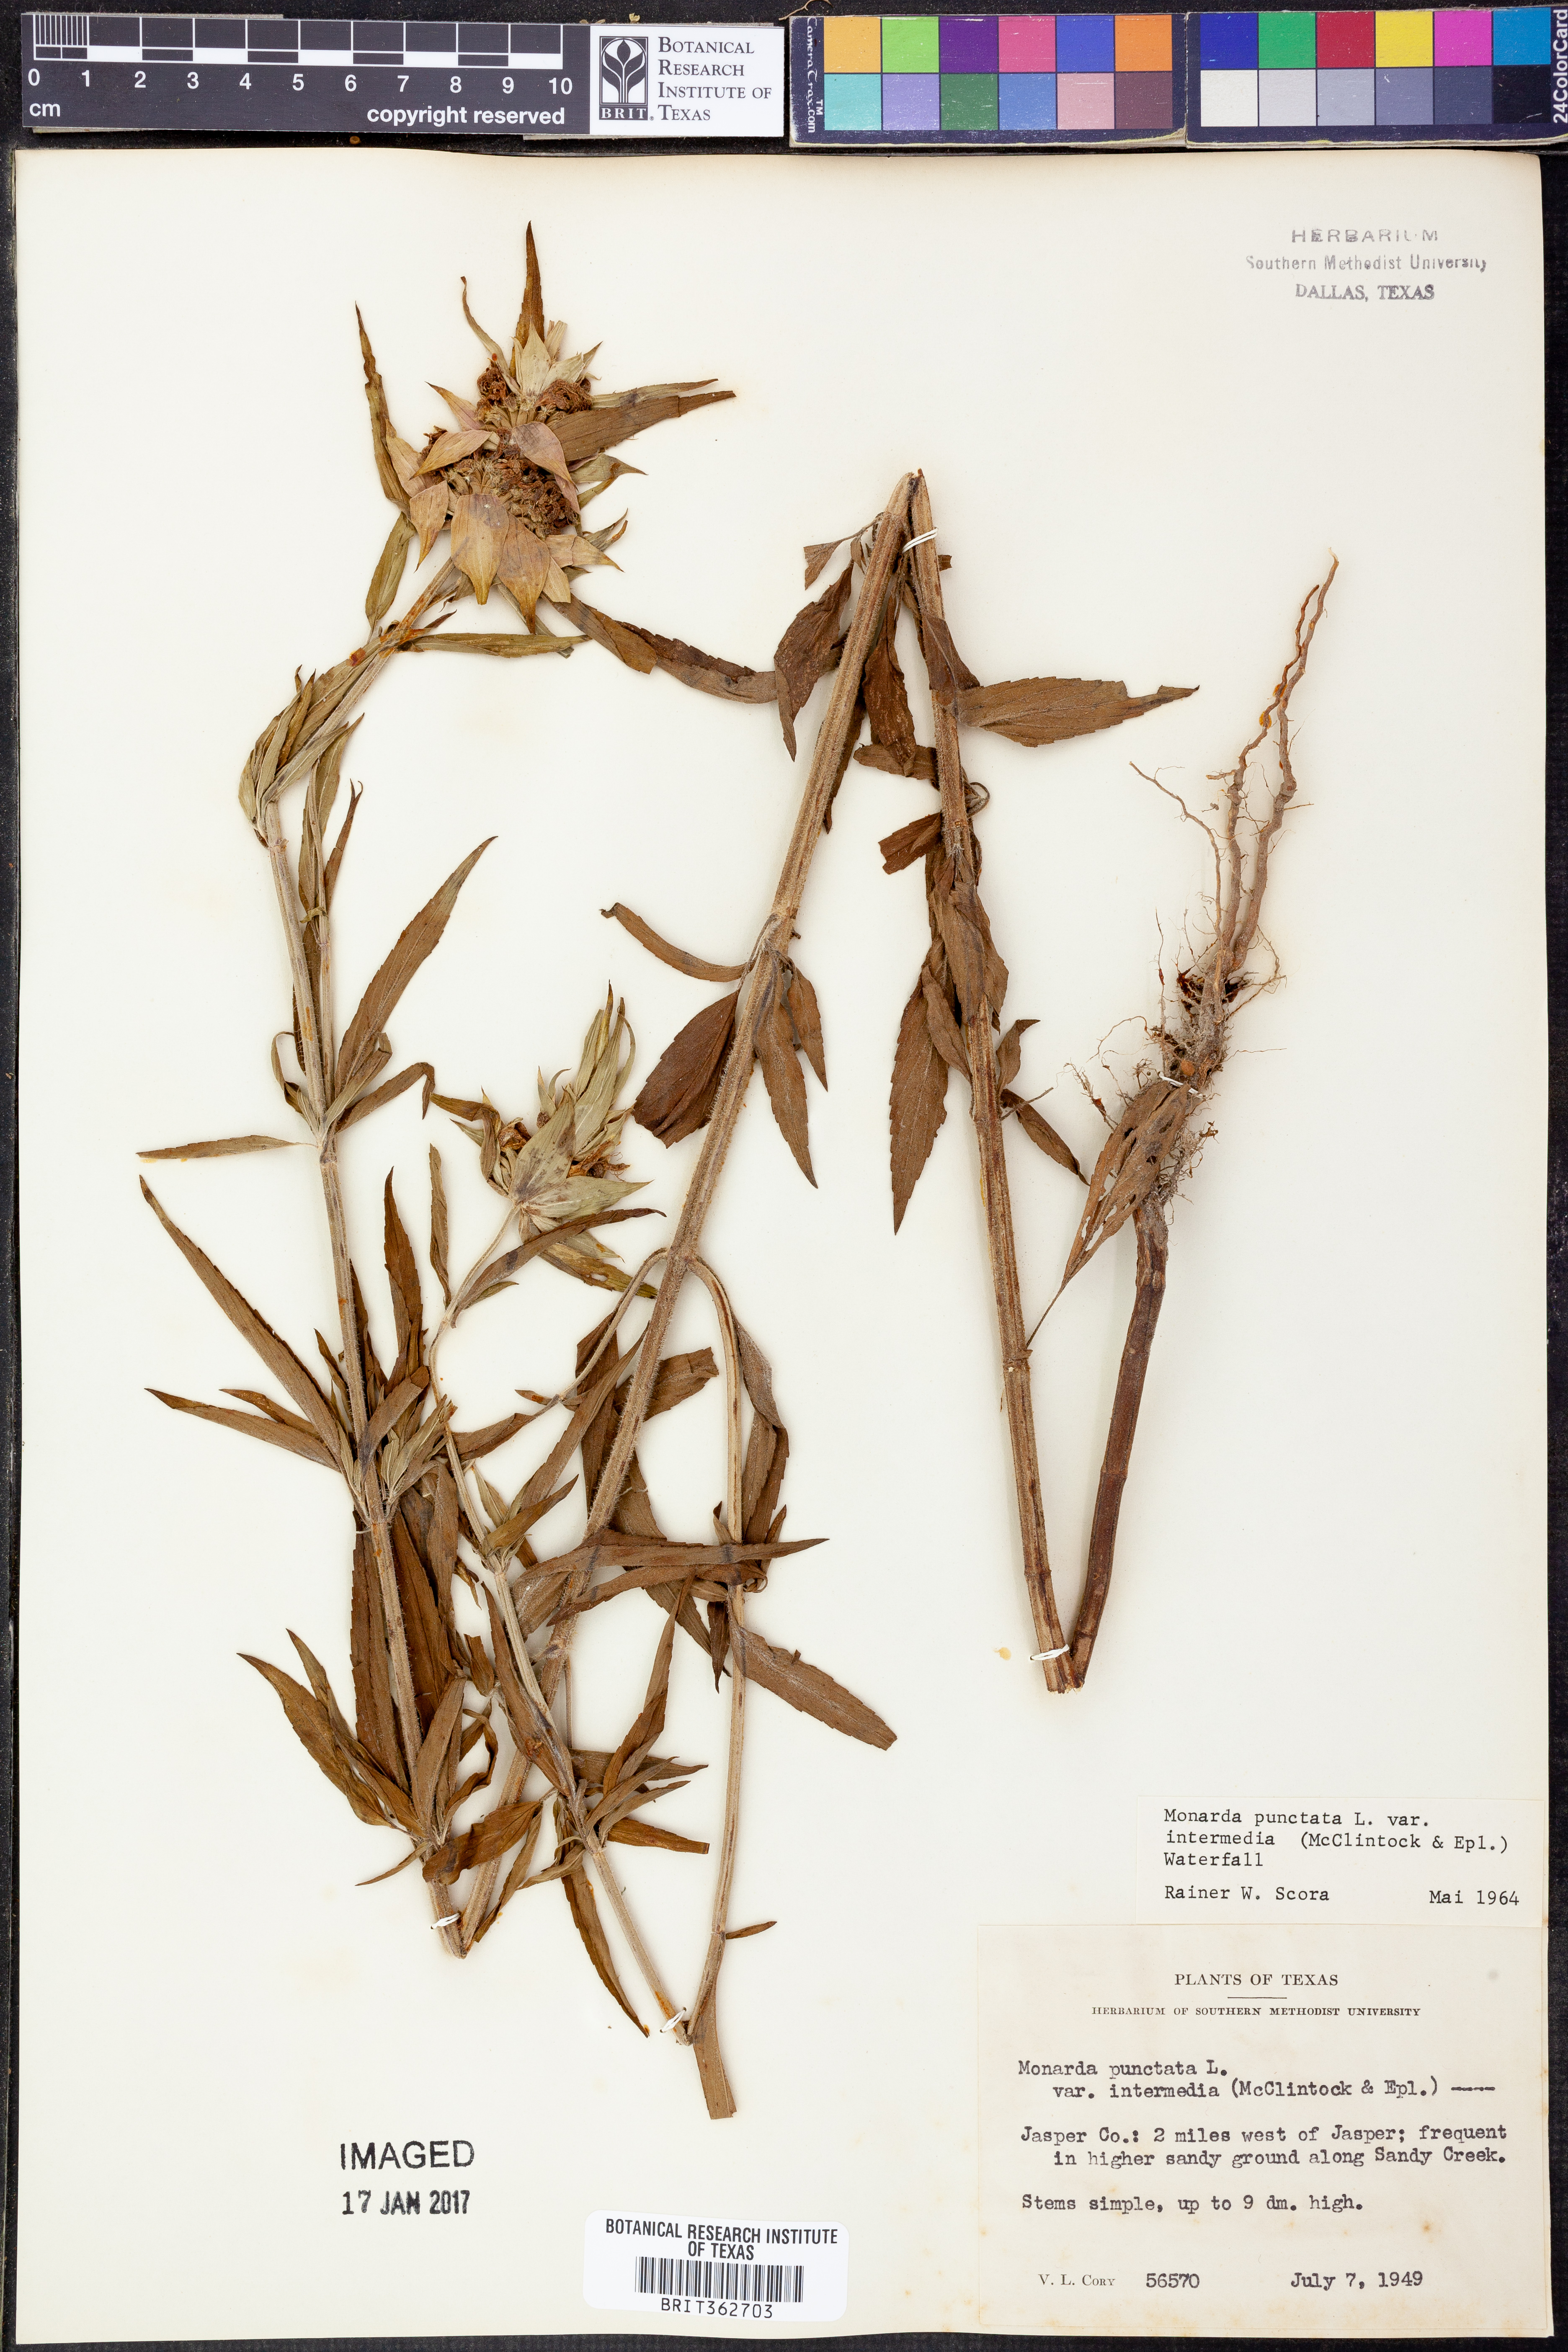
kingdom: Plantae
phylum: Tracheophyta
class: Magnoliopsida
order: Lamiales
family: Lamiaceae
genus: Monarda
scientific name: Monarda punctata
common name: Dotted monarda
